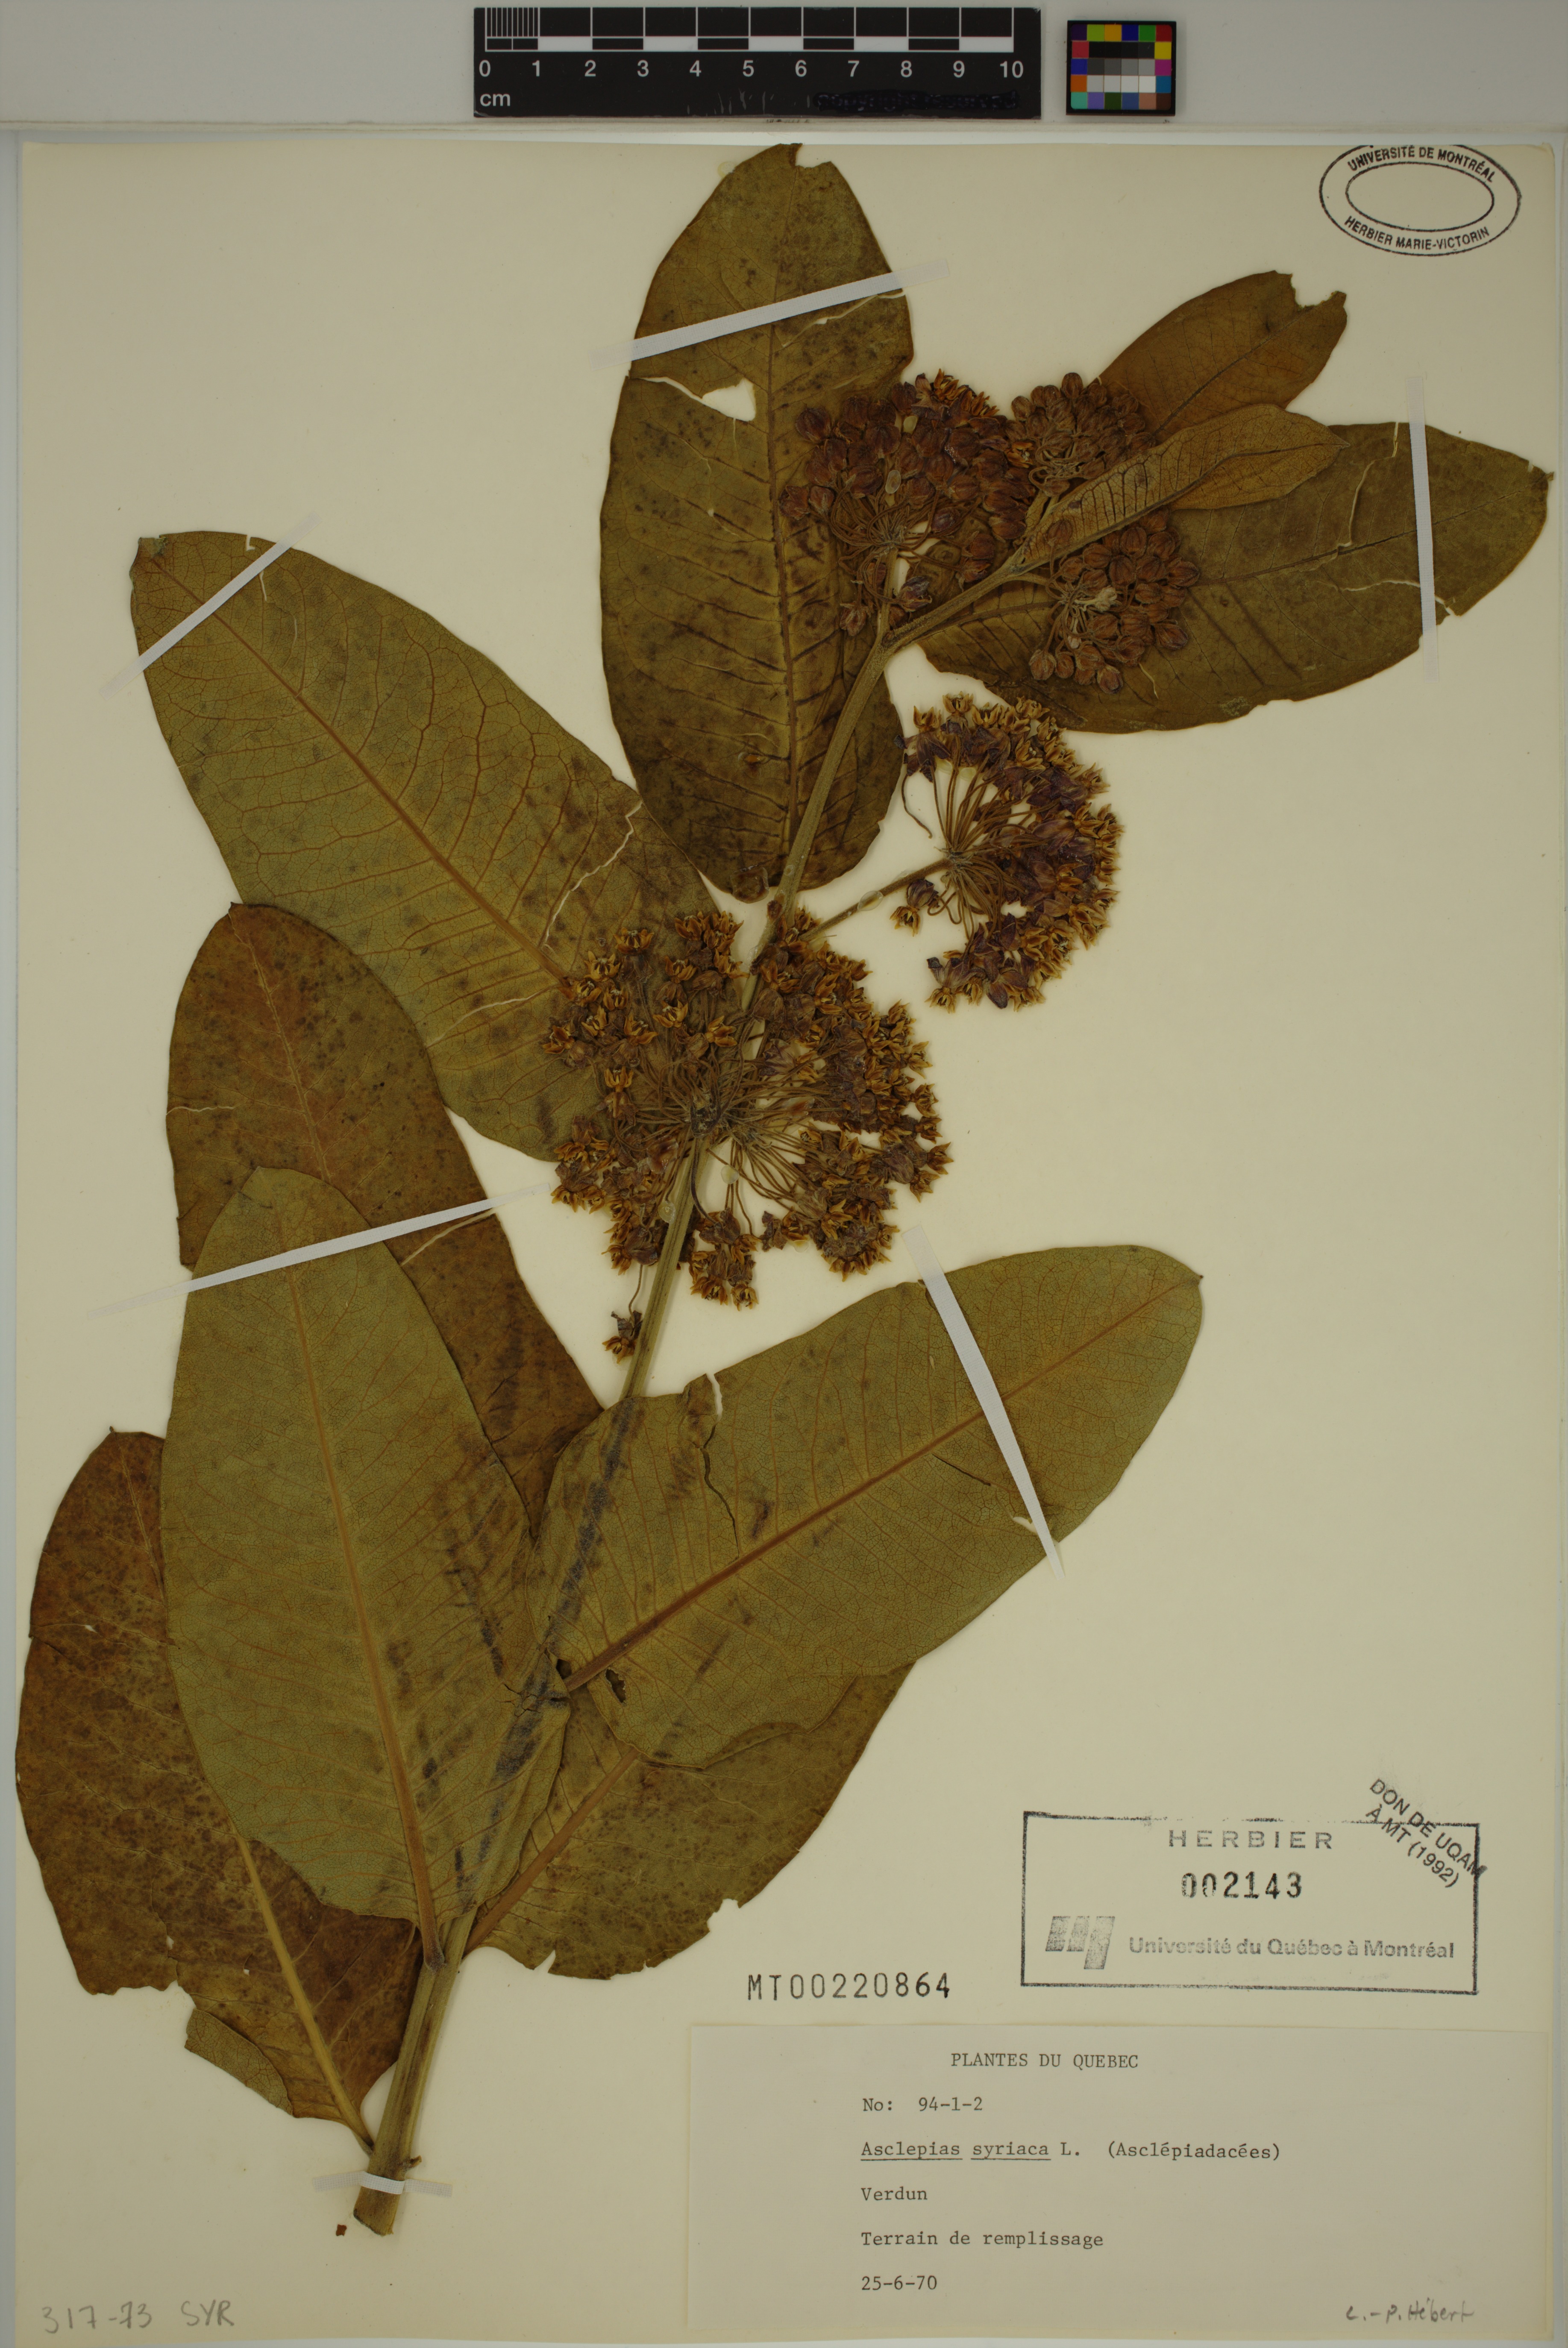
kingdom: Plantae
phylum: Tracheophyta
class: Magnoliopsida
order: Gentianales
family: Apocynaceae
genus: Asclepias
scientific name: Asclepias syriaca
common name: Common milkweed
